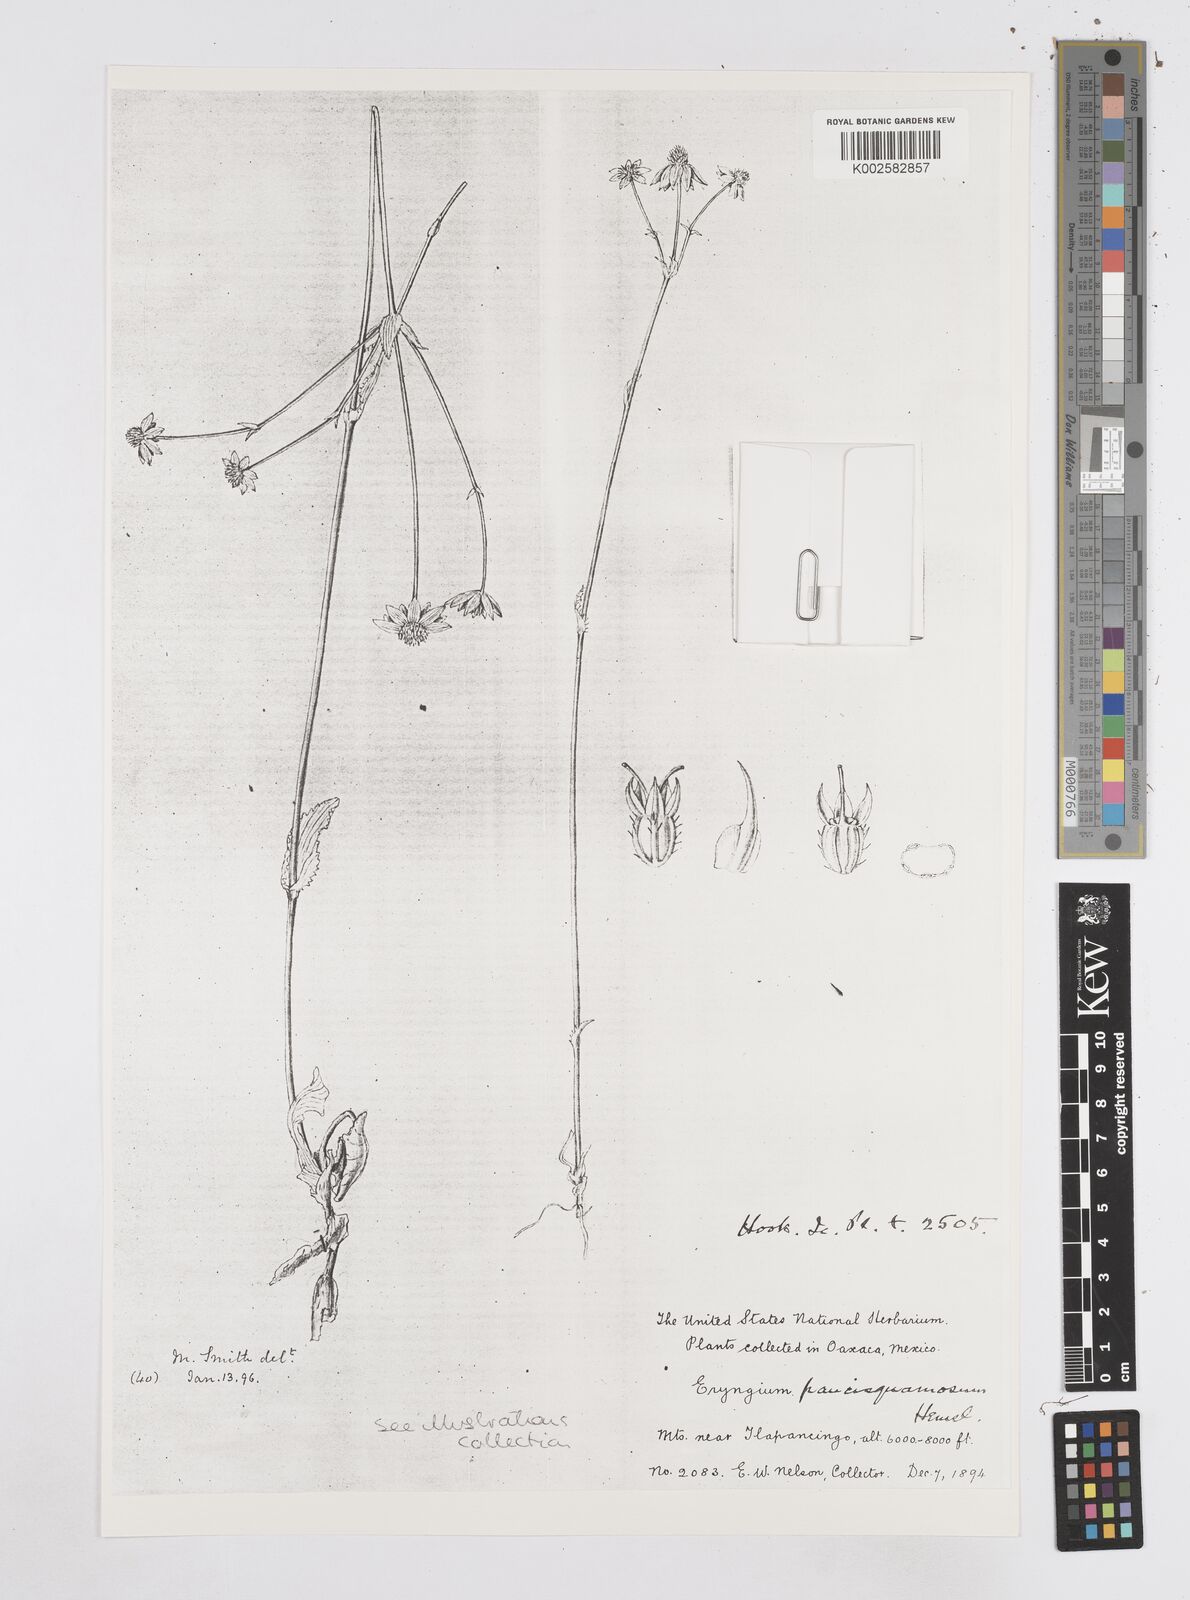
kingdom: Plantae
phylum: Tracheophyta
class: Magnoliopsida
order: Apiales
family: Apiaceae
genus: Eryngium
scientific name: Eryngium gracile
